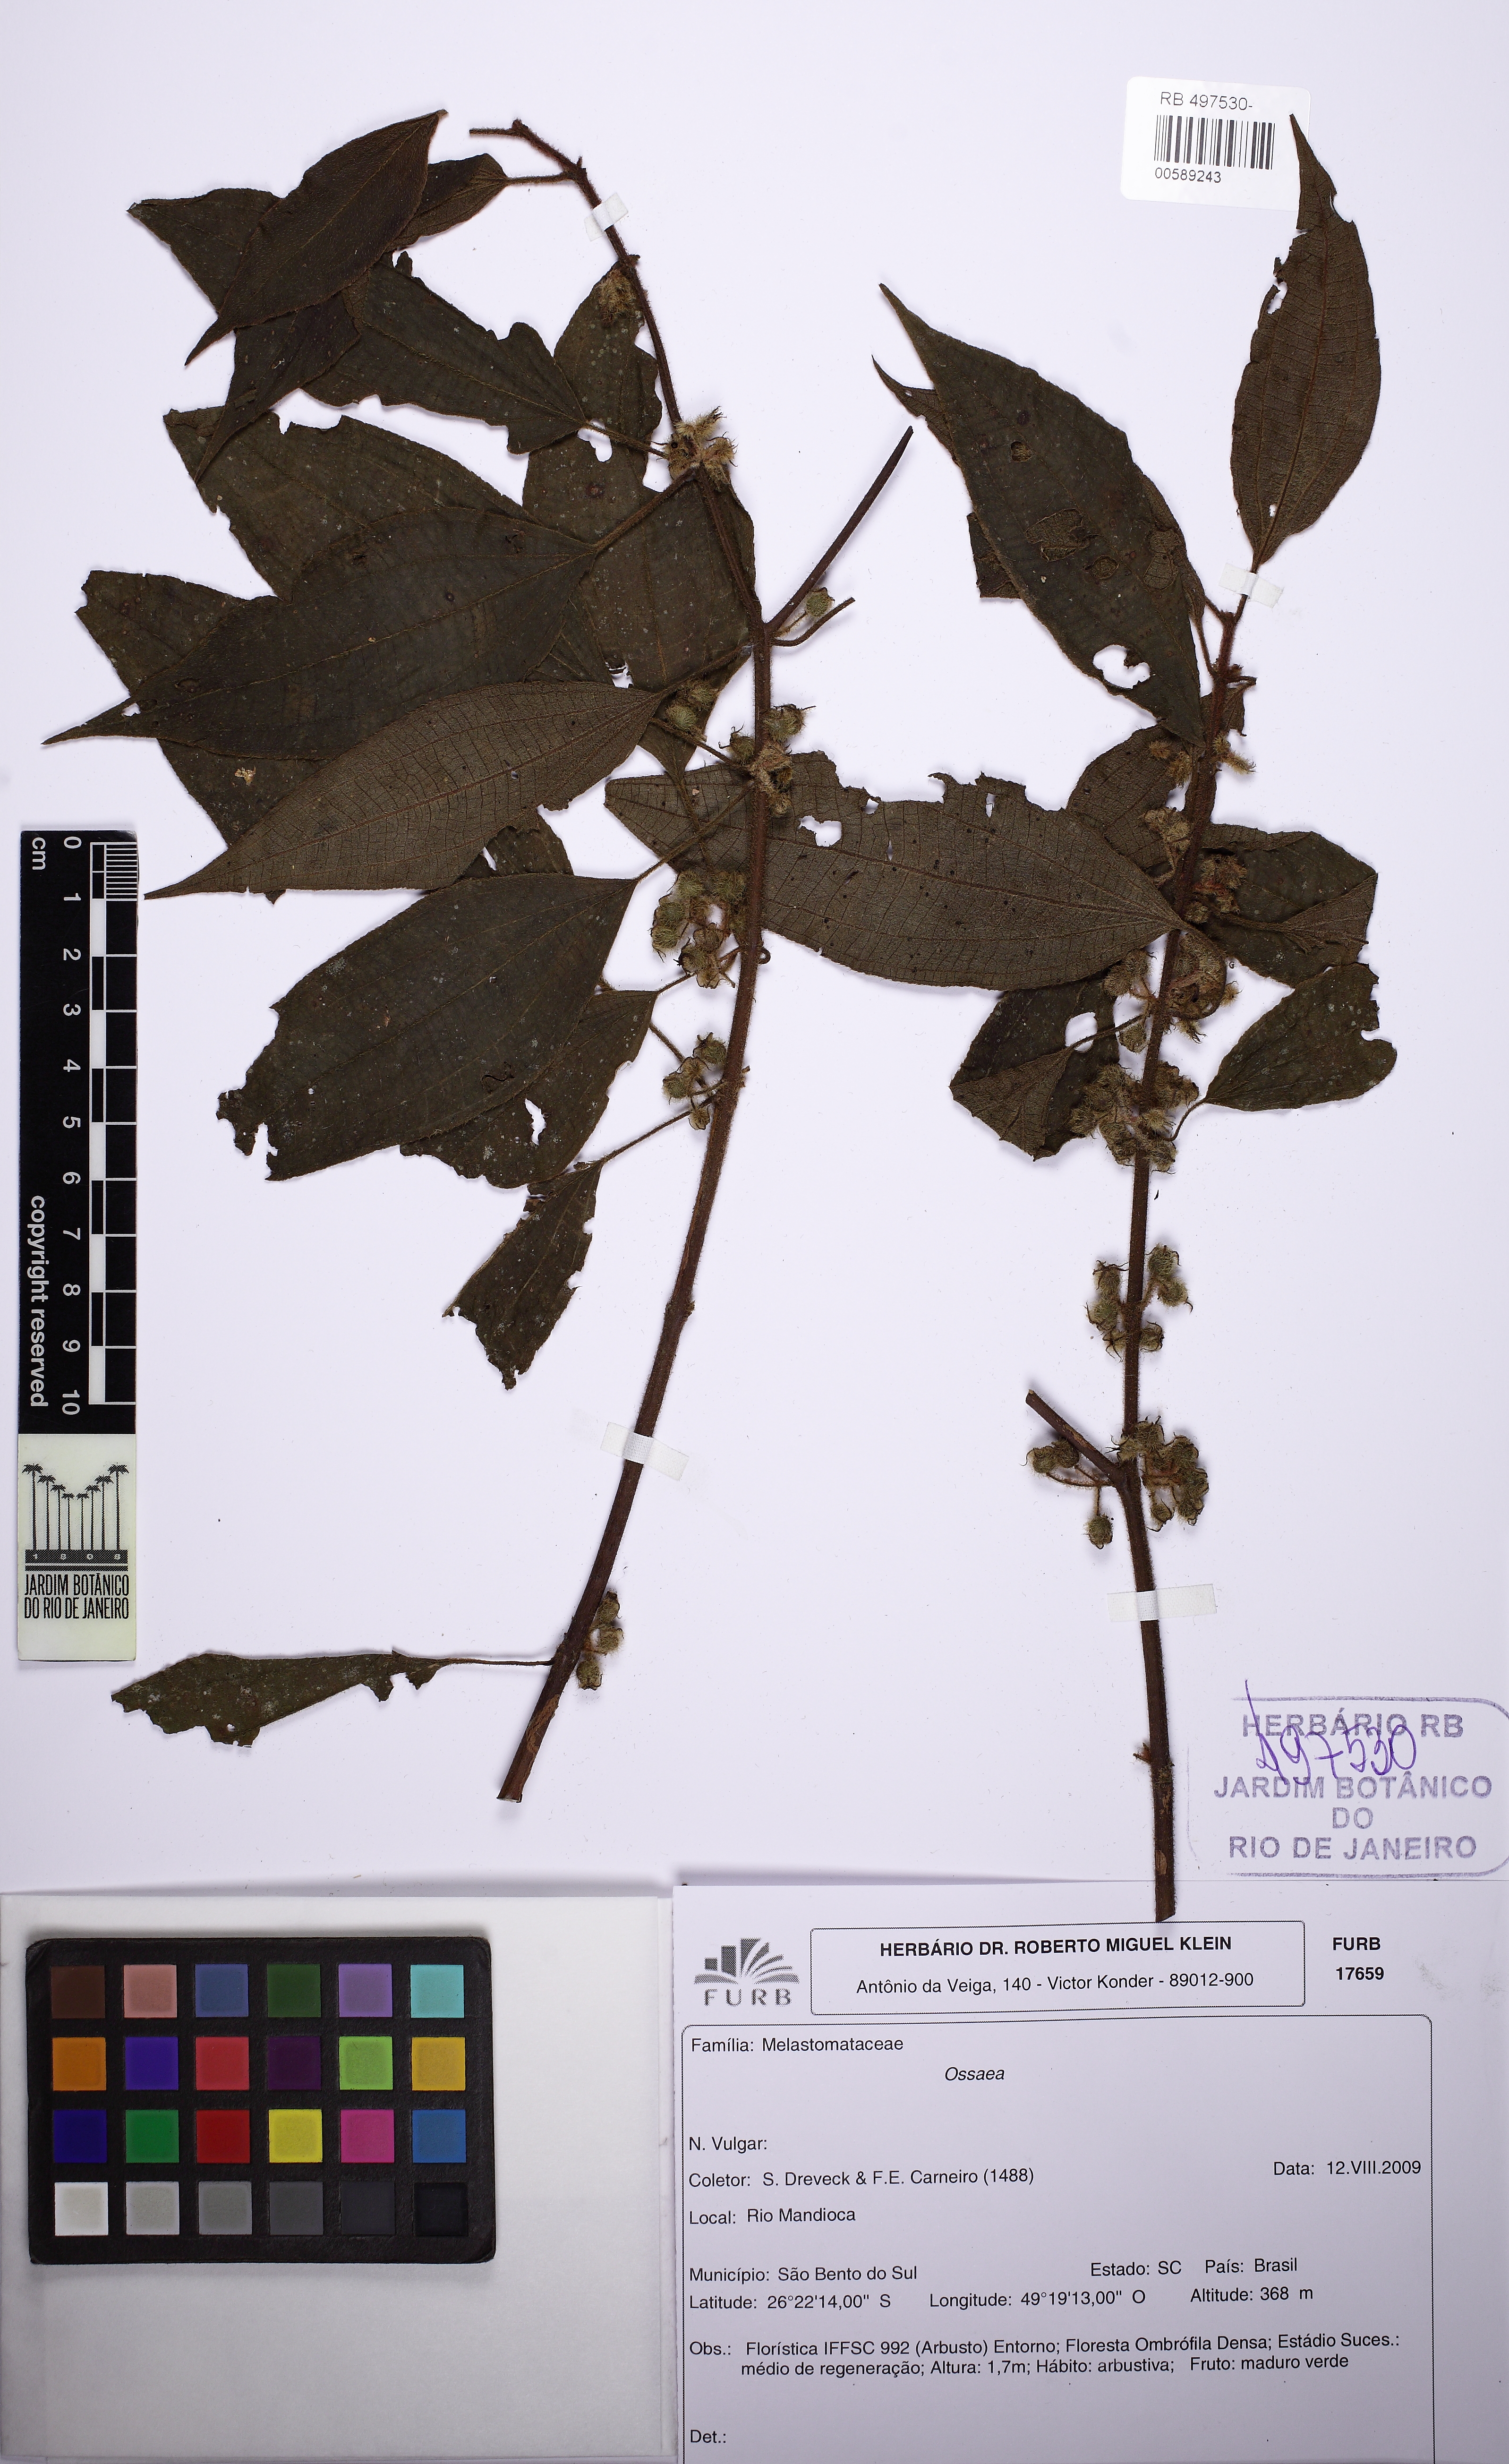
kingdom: Plantae
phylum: Tracheophyta
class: Magnoliopsida
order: Myrtales
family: Melastomataceae
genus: Ossaea
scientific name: Ossaea
